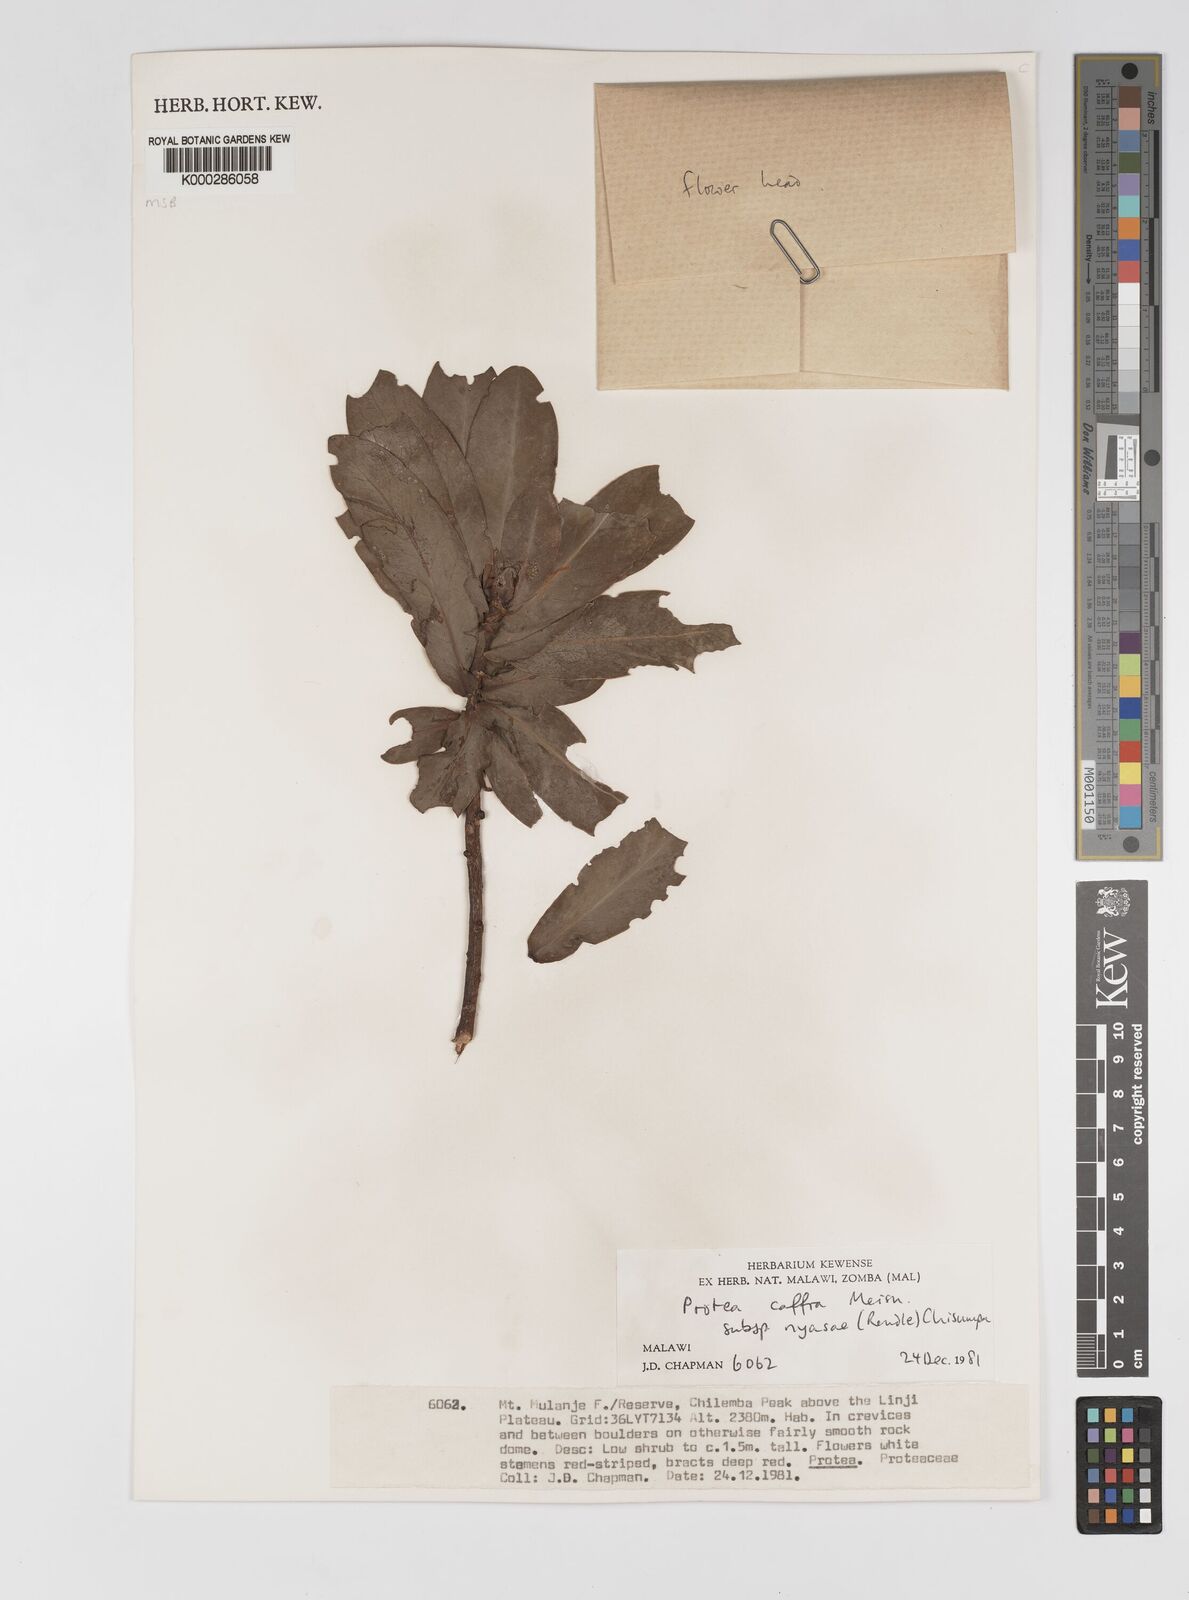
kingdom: Plantae
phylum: Tracheophyta
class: Magnoliopsida
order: Proteales
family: Proteaceae
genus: Protea
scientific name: Protea caffra
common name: Common sugarbush
